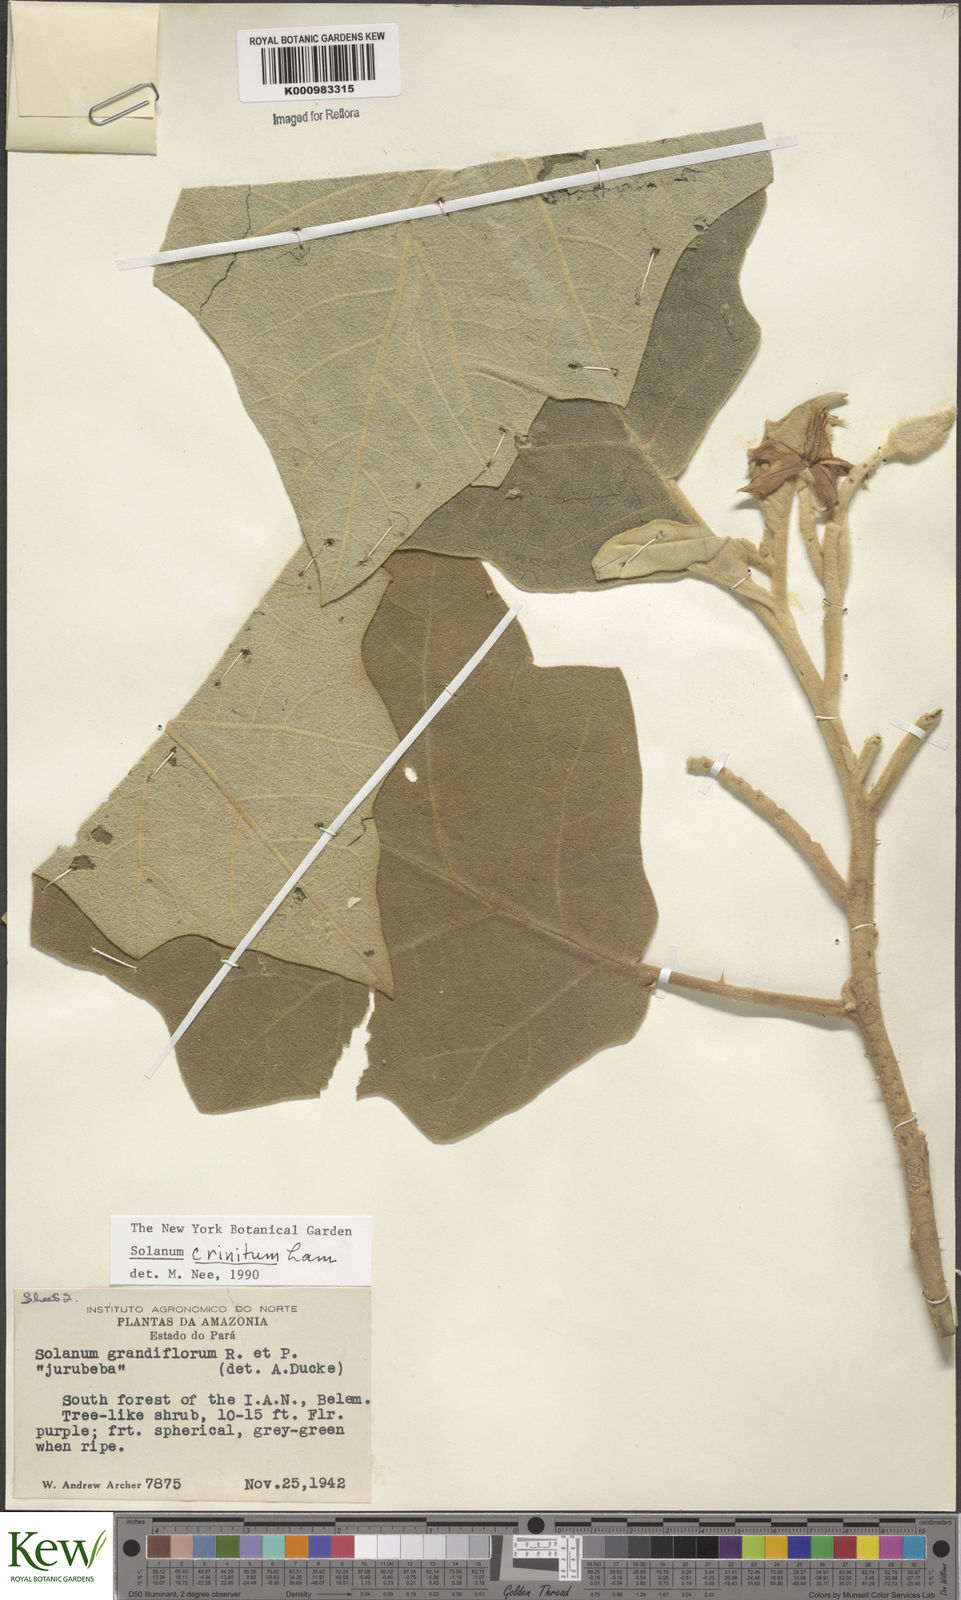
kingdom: Plantae
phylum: Tracheophyta
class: Magnoliopsida
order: Solanales
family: Solanaceae
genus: Solanum
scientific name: Solanum crinitum
